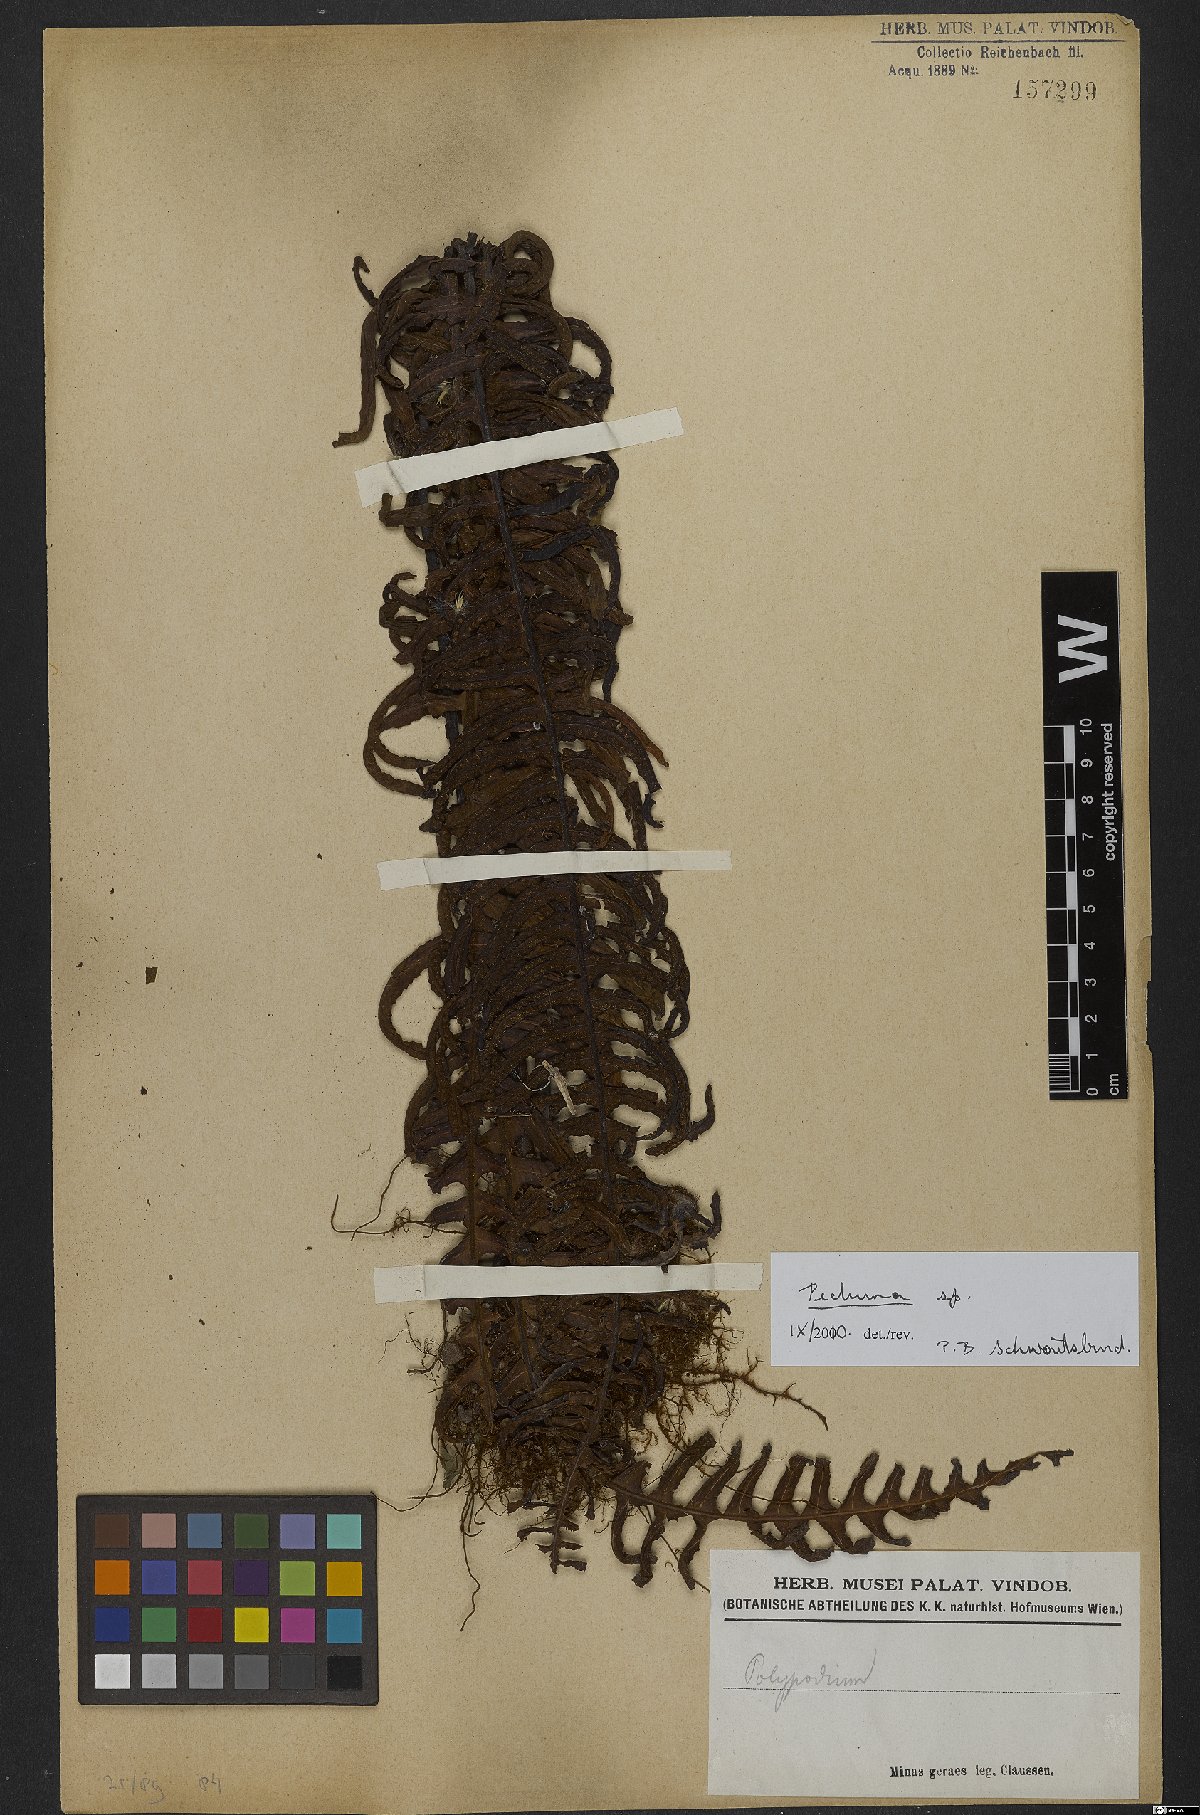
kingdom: Plantae
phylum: Tracheophyta
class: Polypodiopsida
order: Polypodiales
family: Polypodiaceae
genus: Pecluma
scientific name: Pecluma
